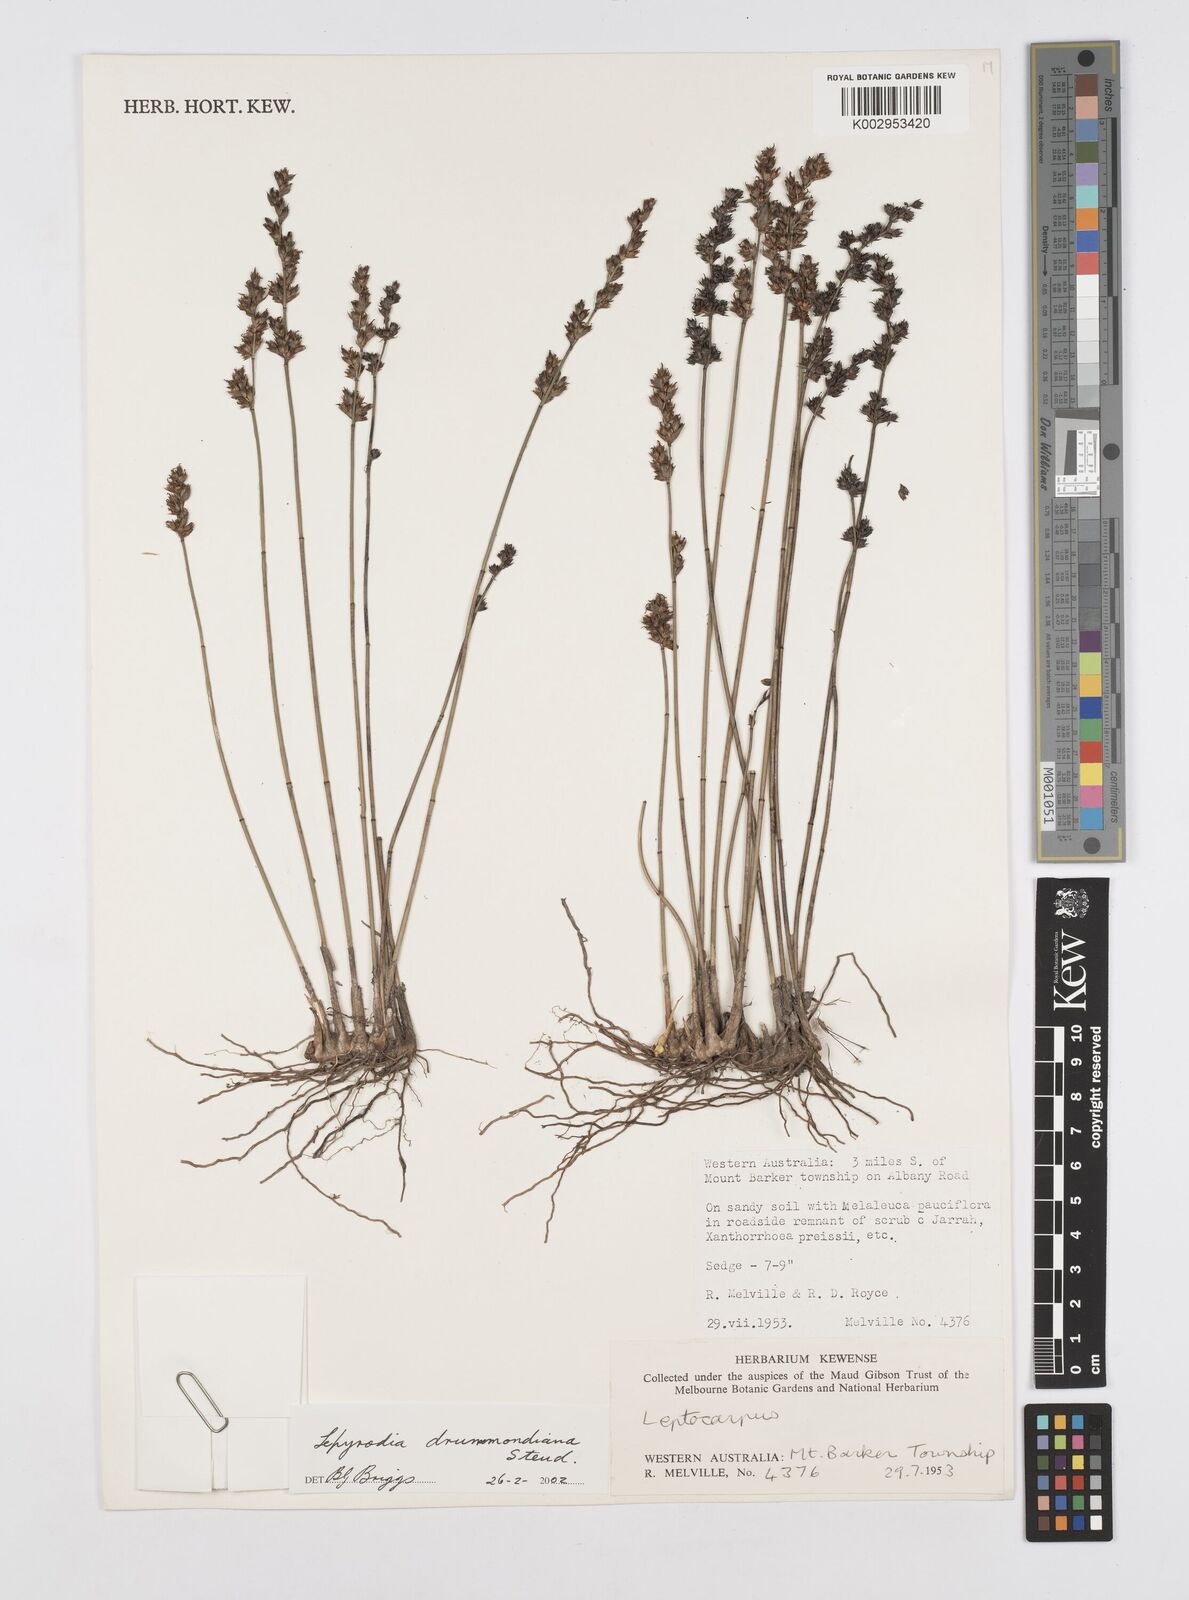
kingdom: Plantae
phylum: Tracheophyta
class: Liliopsida
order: Poales
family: Restionaceae
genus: Lepyrodia
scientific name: Lepyrodia drummondiana
